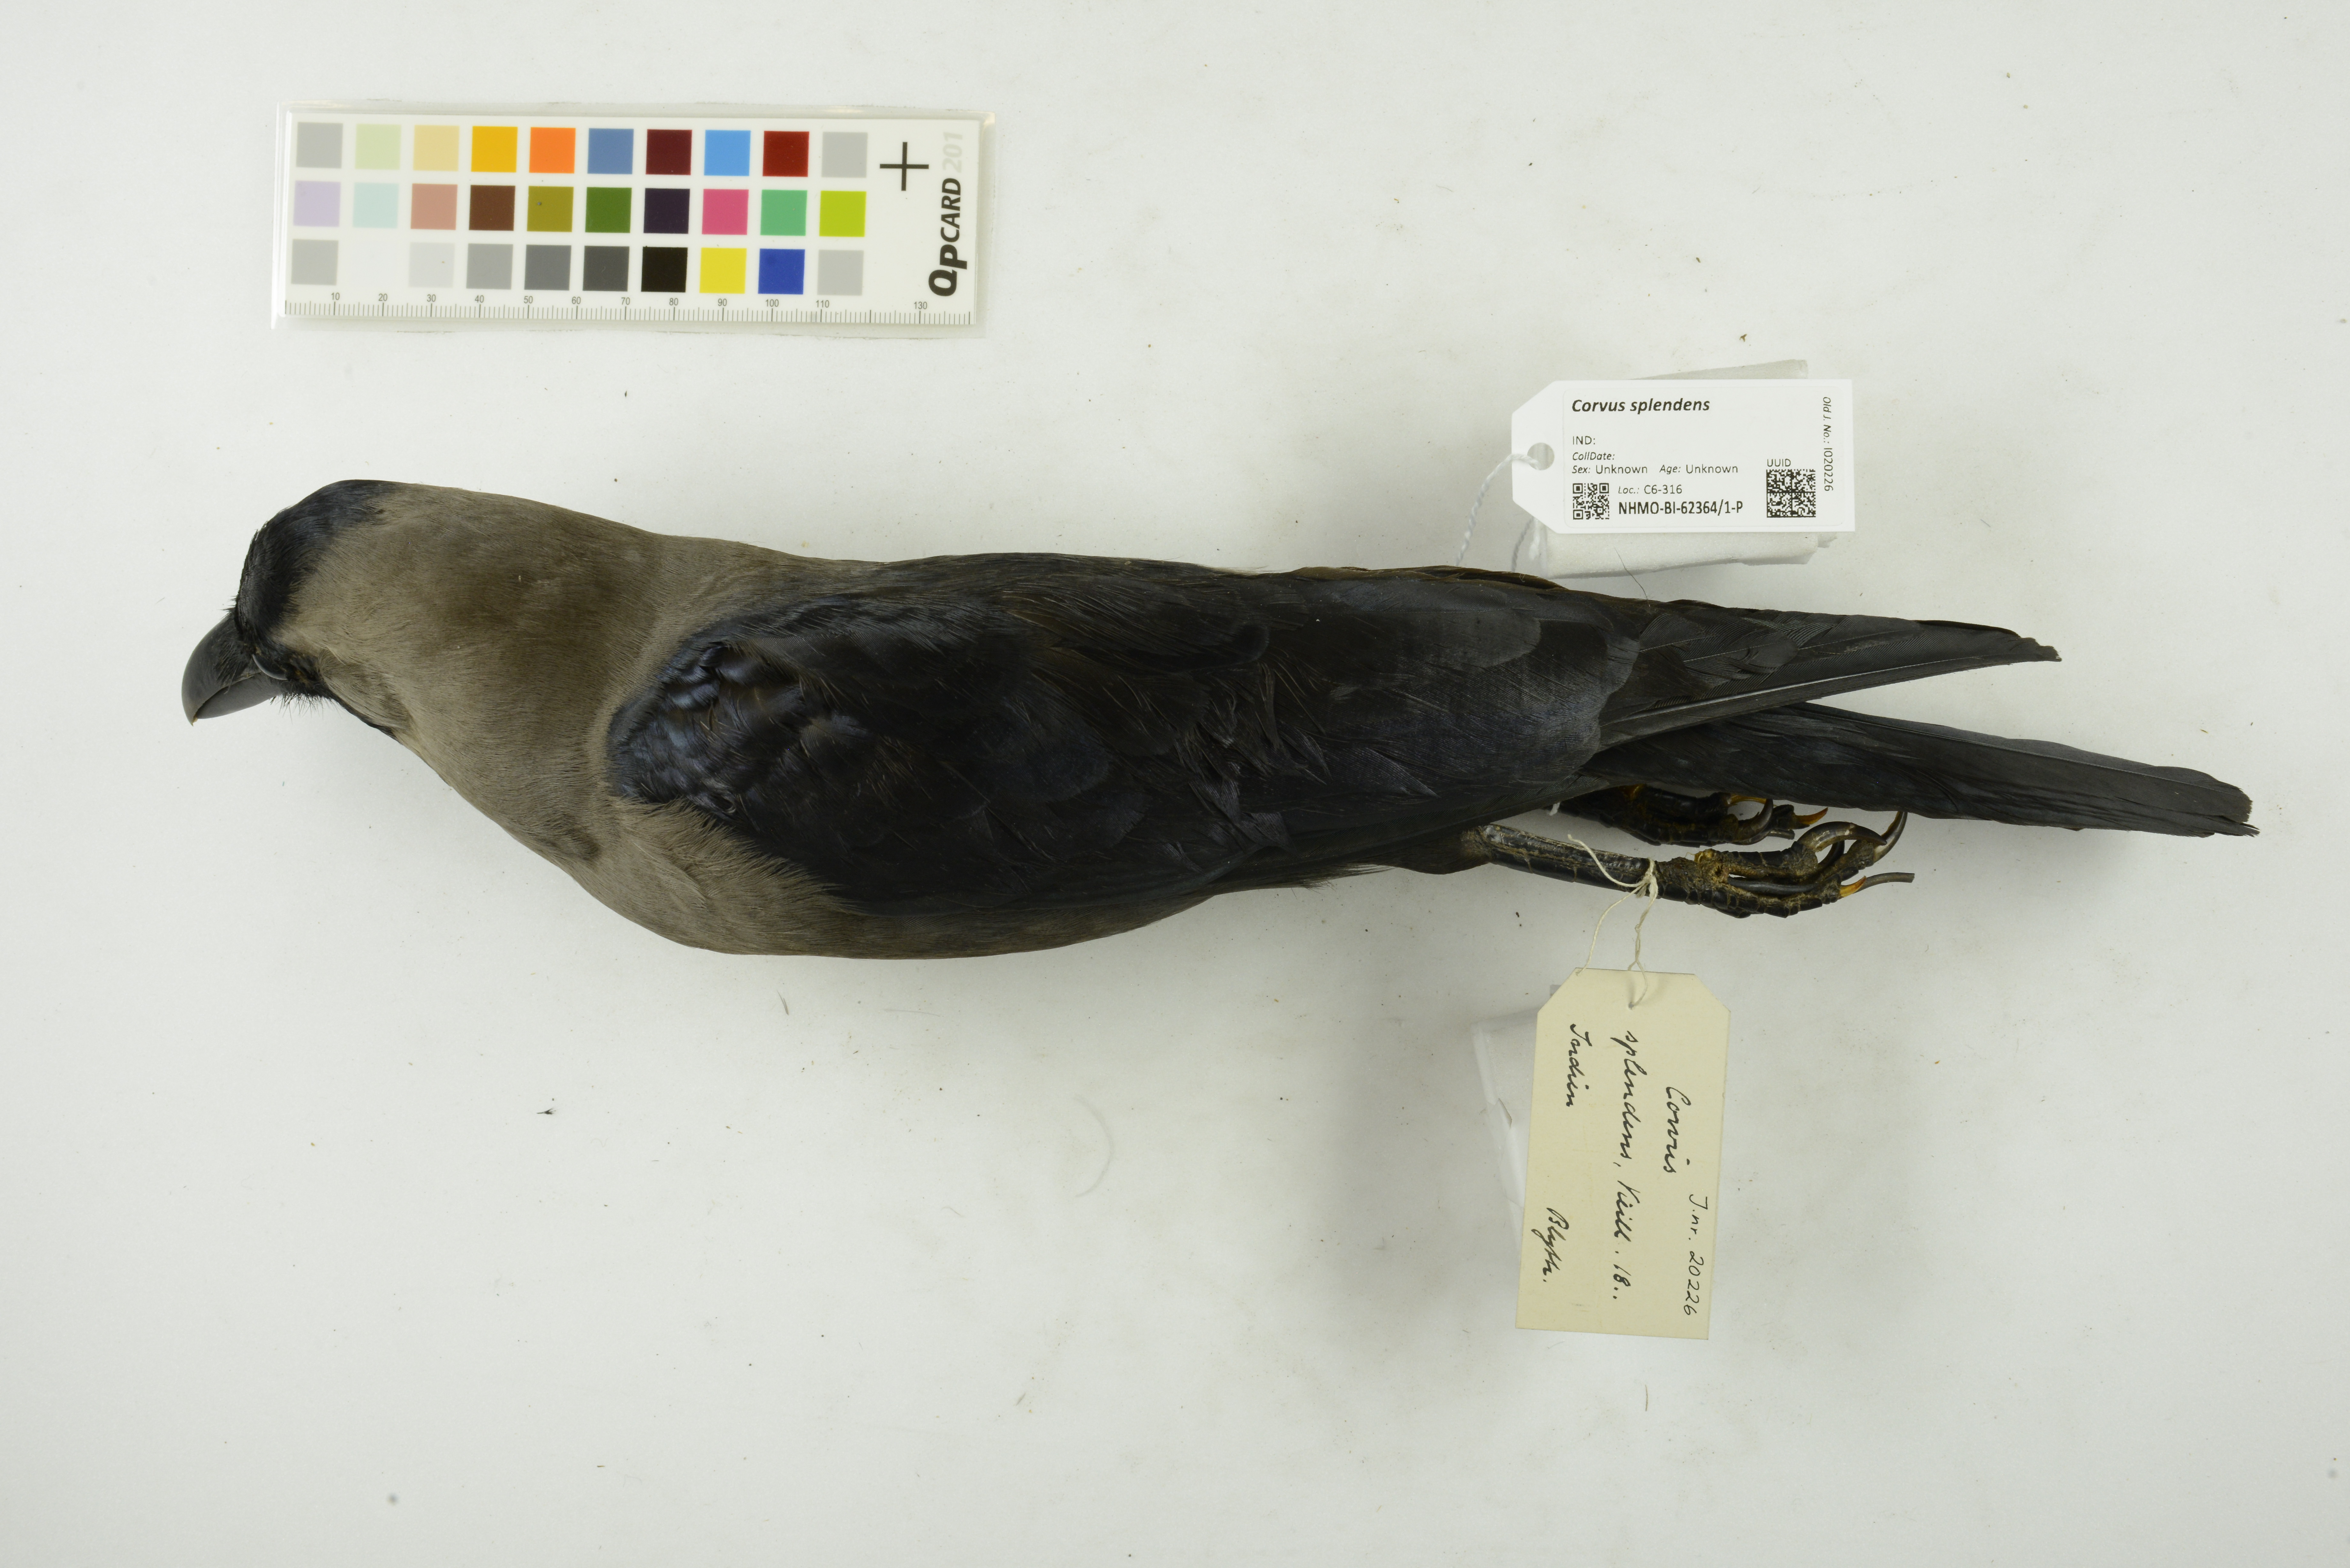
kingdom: Animalia
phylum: Chordata
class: Aves
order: Passeriformes
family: Corvidae
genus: Corvus
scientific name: Corvus splendens
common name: House crow
